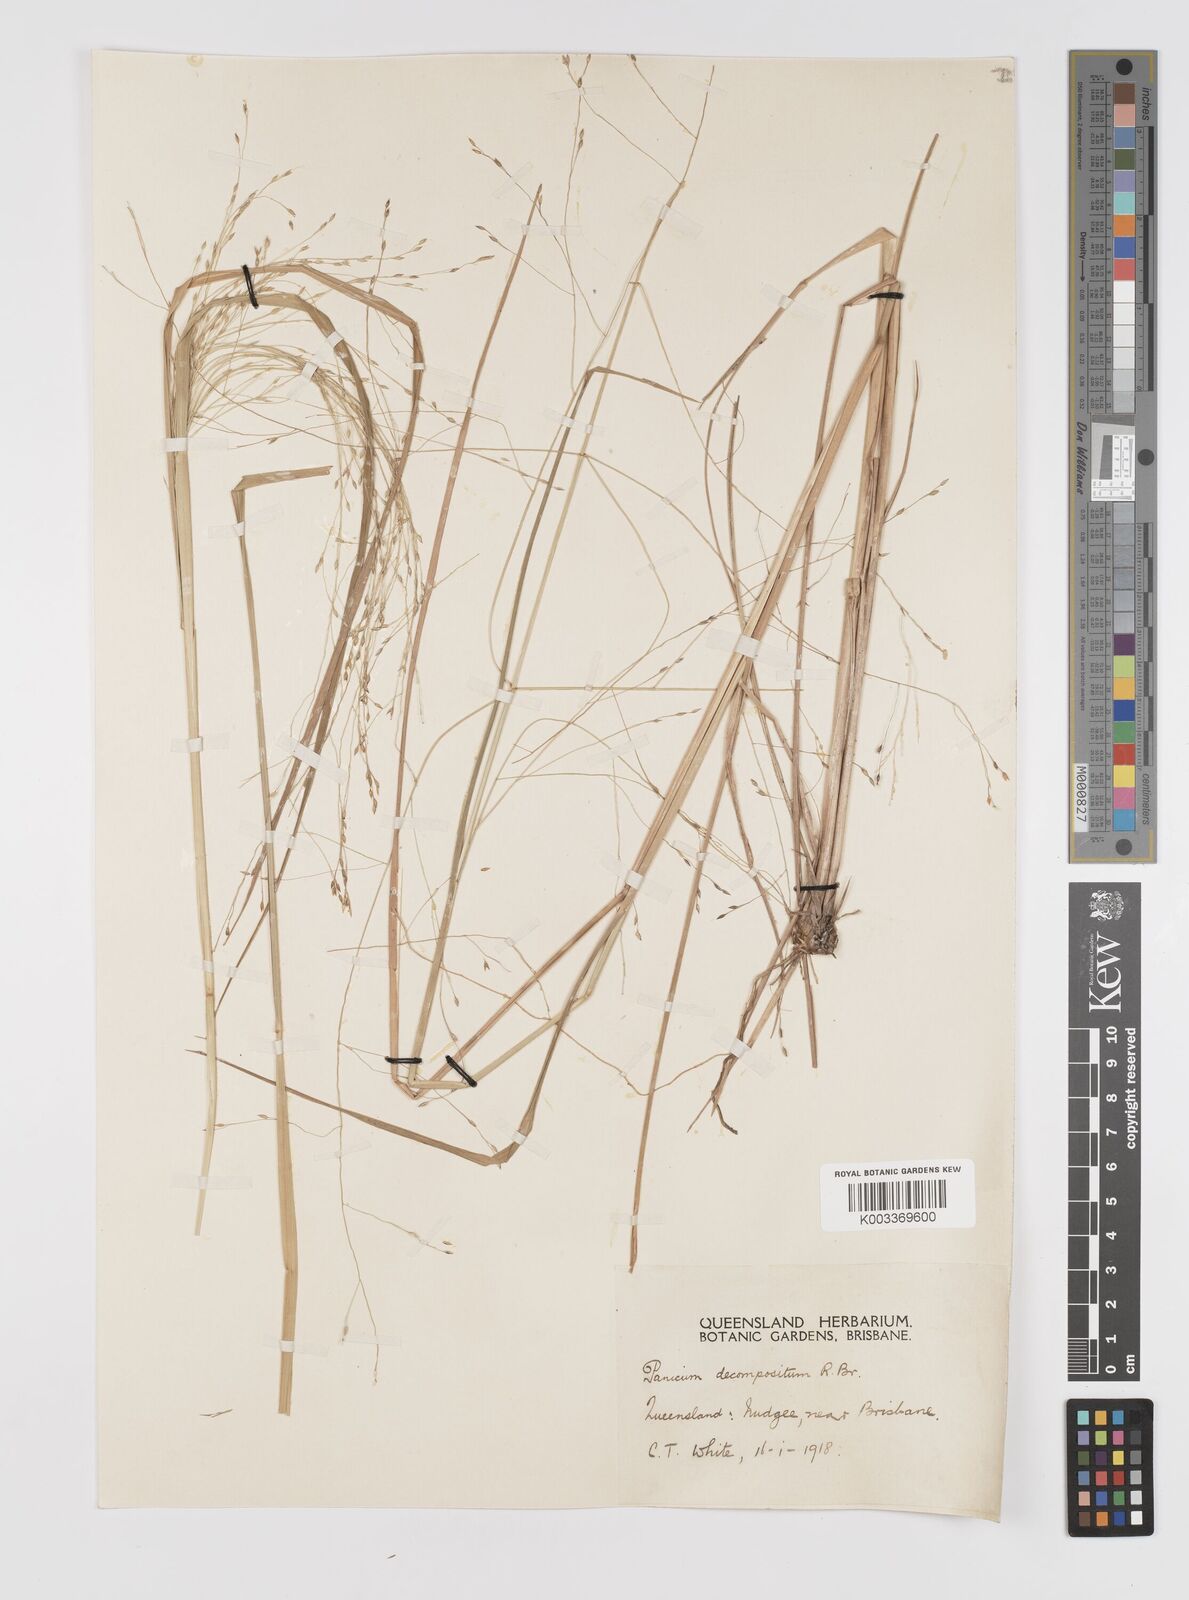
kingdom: Plantae
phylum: Tracheophyta
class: Liliopsida
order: Poales
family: Poaceae
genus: Panicum
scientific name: Panicum decompositum
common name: Australian millet
